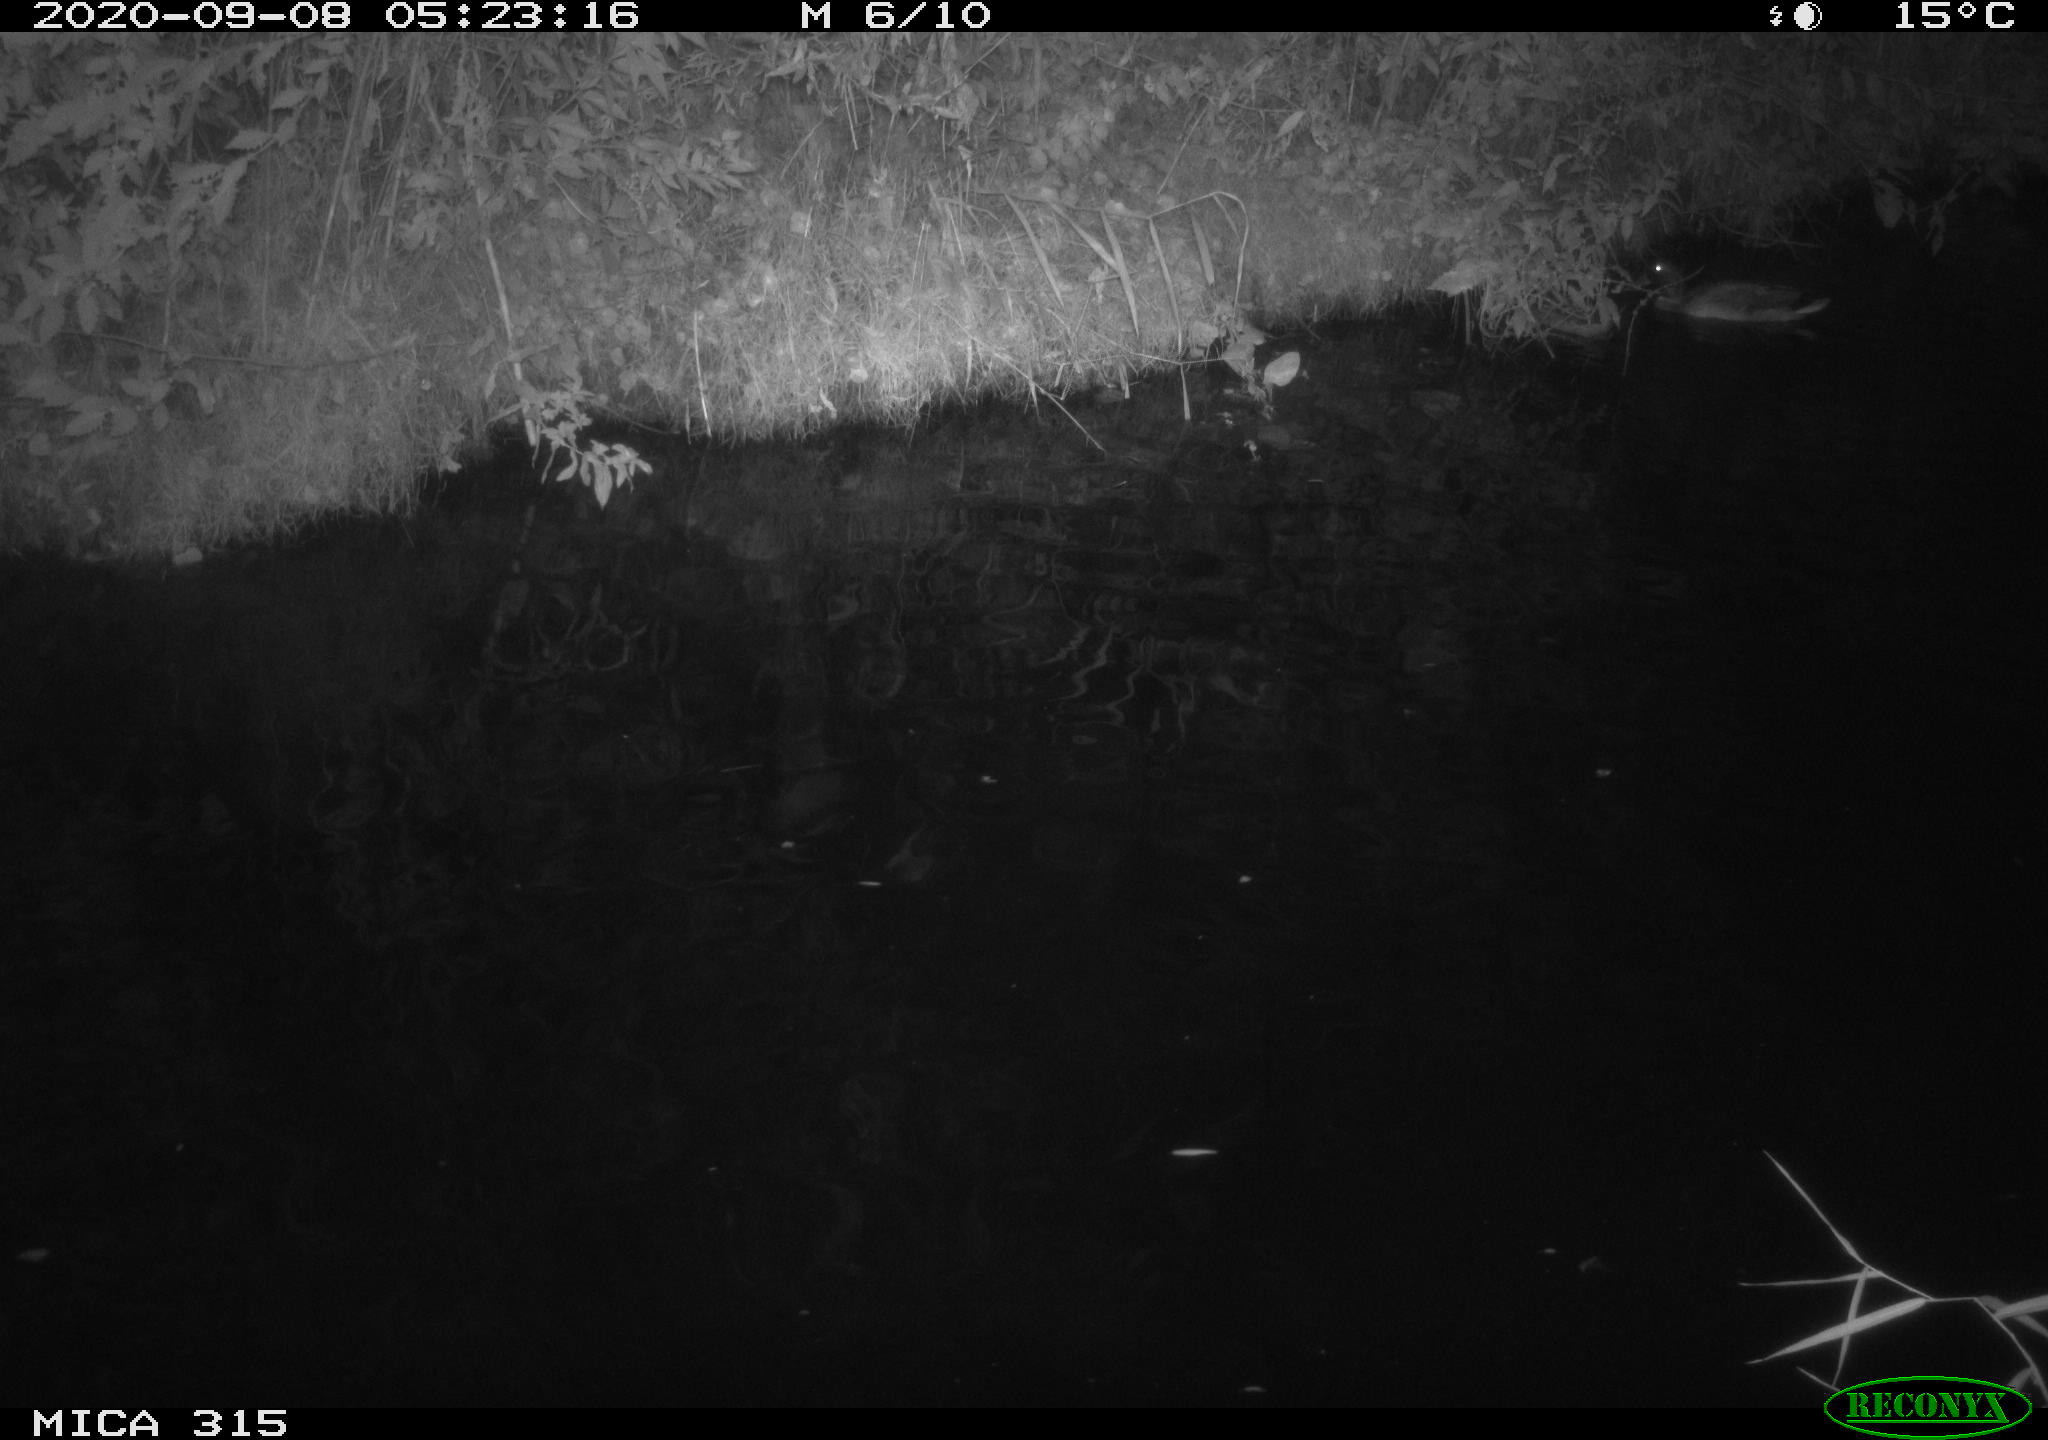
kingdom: Animalia
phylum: Chordata
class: Aves
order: Anseriformes
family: Anatidae
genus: Anas
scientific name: Anas platyrhynchos
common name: Mallard
